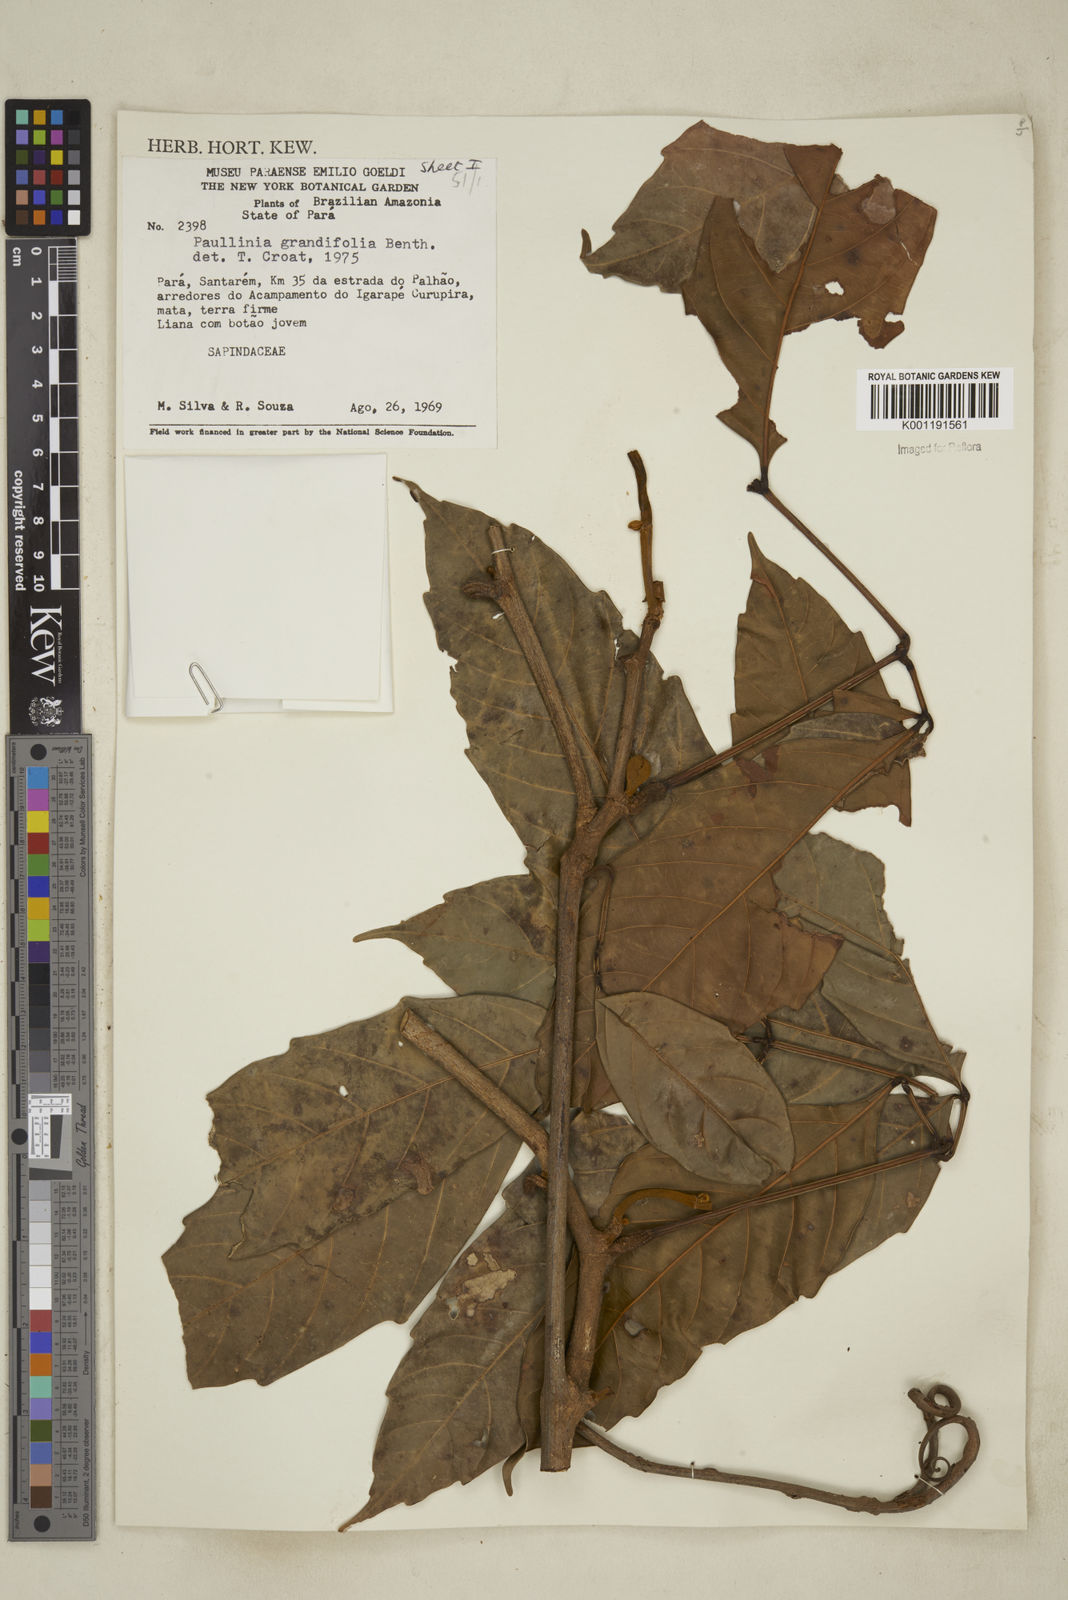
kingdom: Plantae
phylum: Tracheophyta
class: Magnoliopsida
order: Solanales
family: Solanaceae
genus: Solanum
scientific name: Solanum campylacanthum
